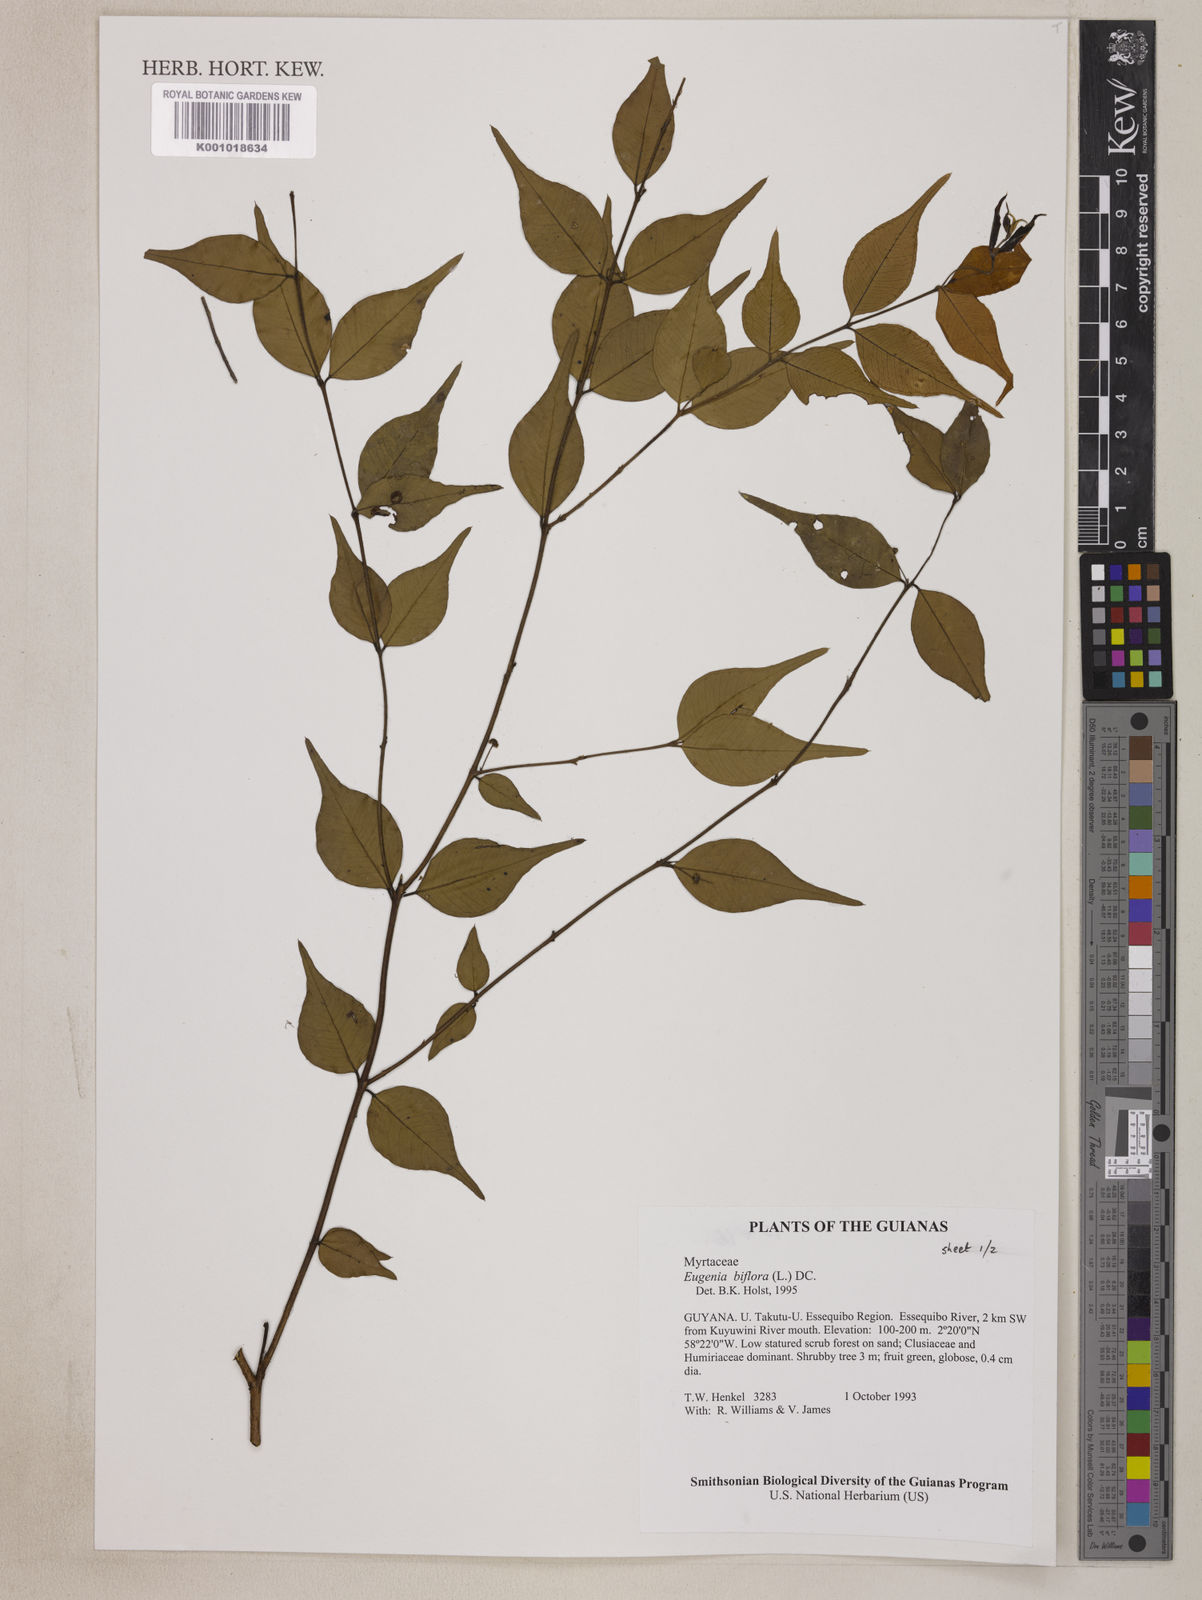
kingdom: Plantae
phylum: Tracheophyta
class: Magnoliopsida
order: Myrtales
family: Myrtaceae
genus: Eugenia
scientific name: Eugenia biflora
